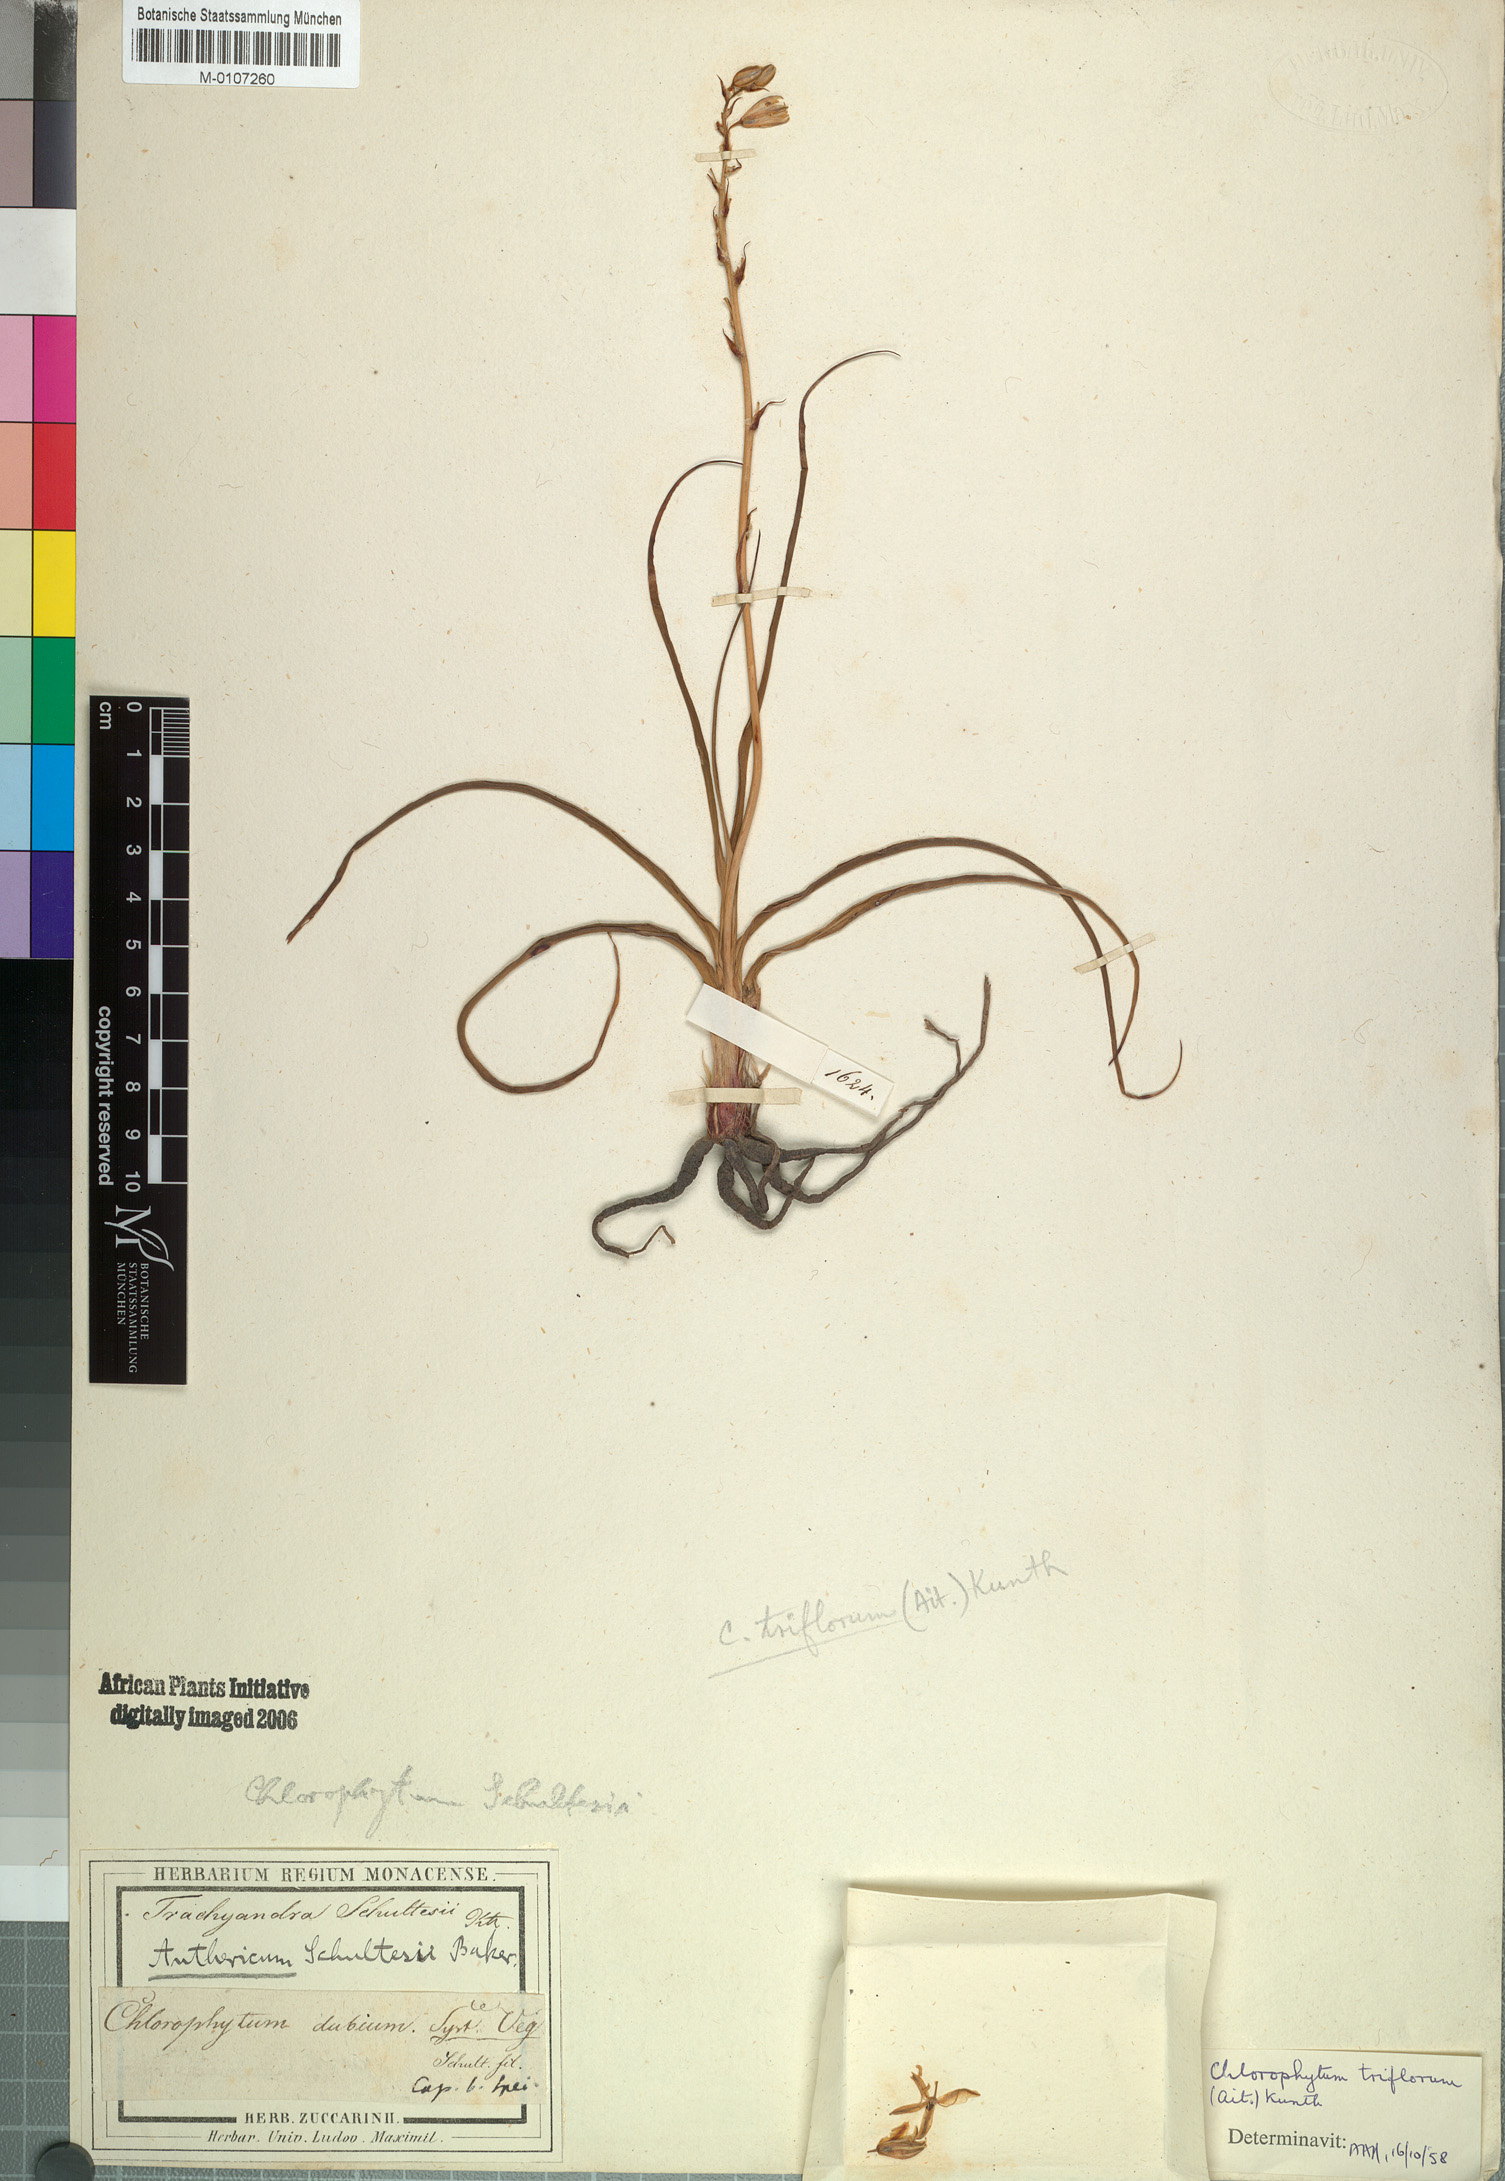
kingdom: Plantae
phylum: Tracheophyta
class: Liliopsida
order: Asparagales
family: Asparagaceae
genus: Chlorophytum
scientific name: Chlorophytum triflorum
